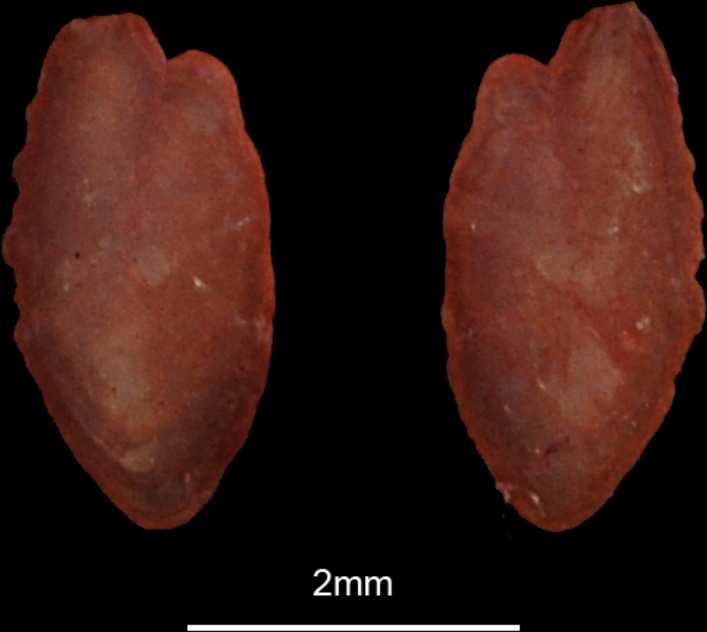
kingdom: Animalia
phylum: Chordata
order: Clupeiformes
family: Engraulidae
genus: Engraulis
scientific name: Engraulis encrasicolus
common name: European anchovy
